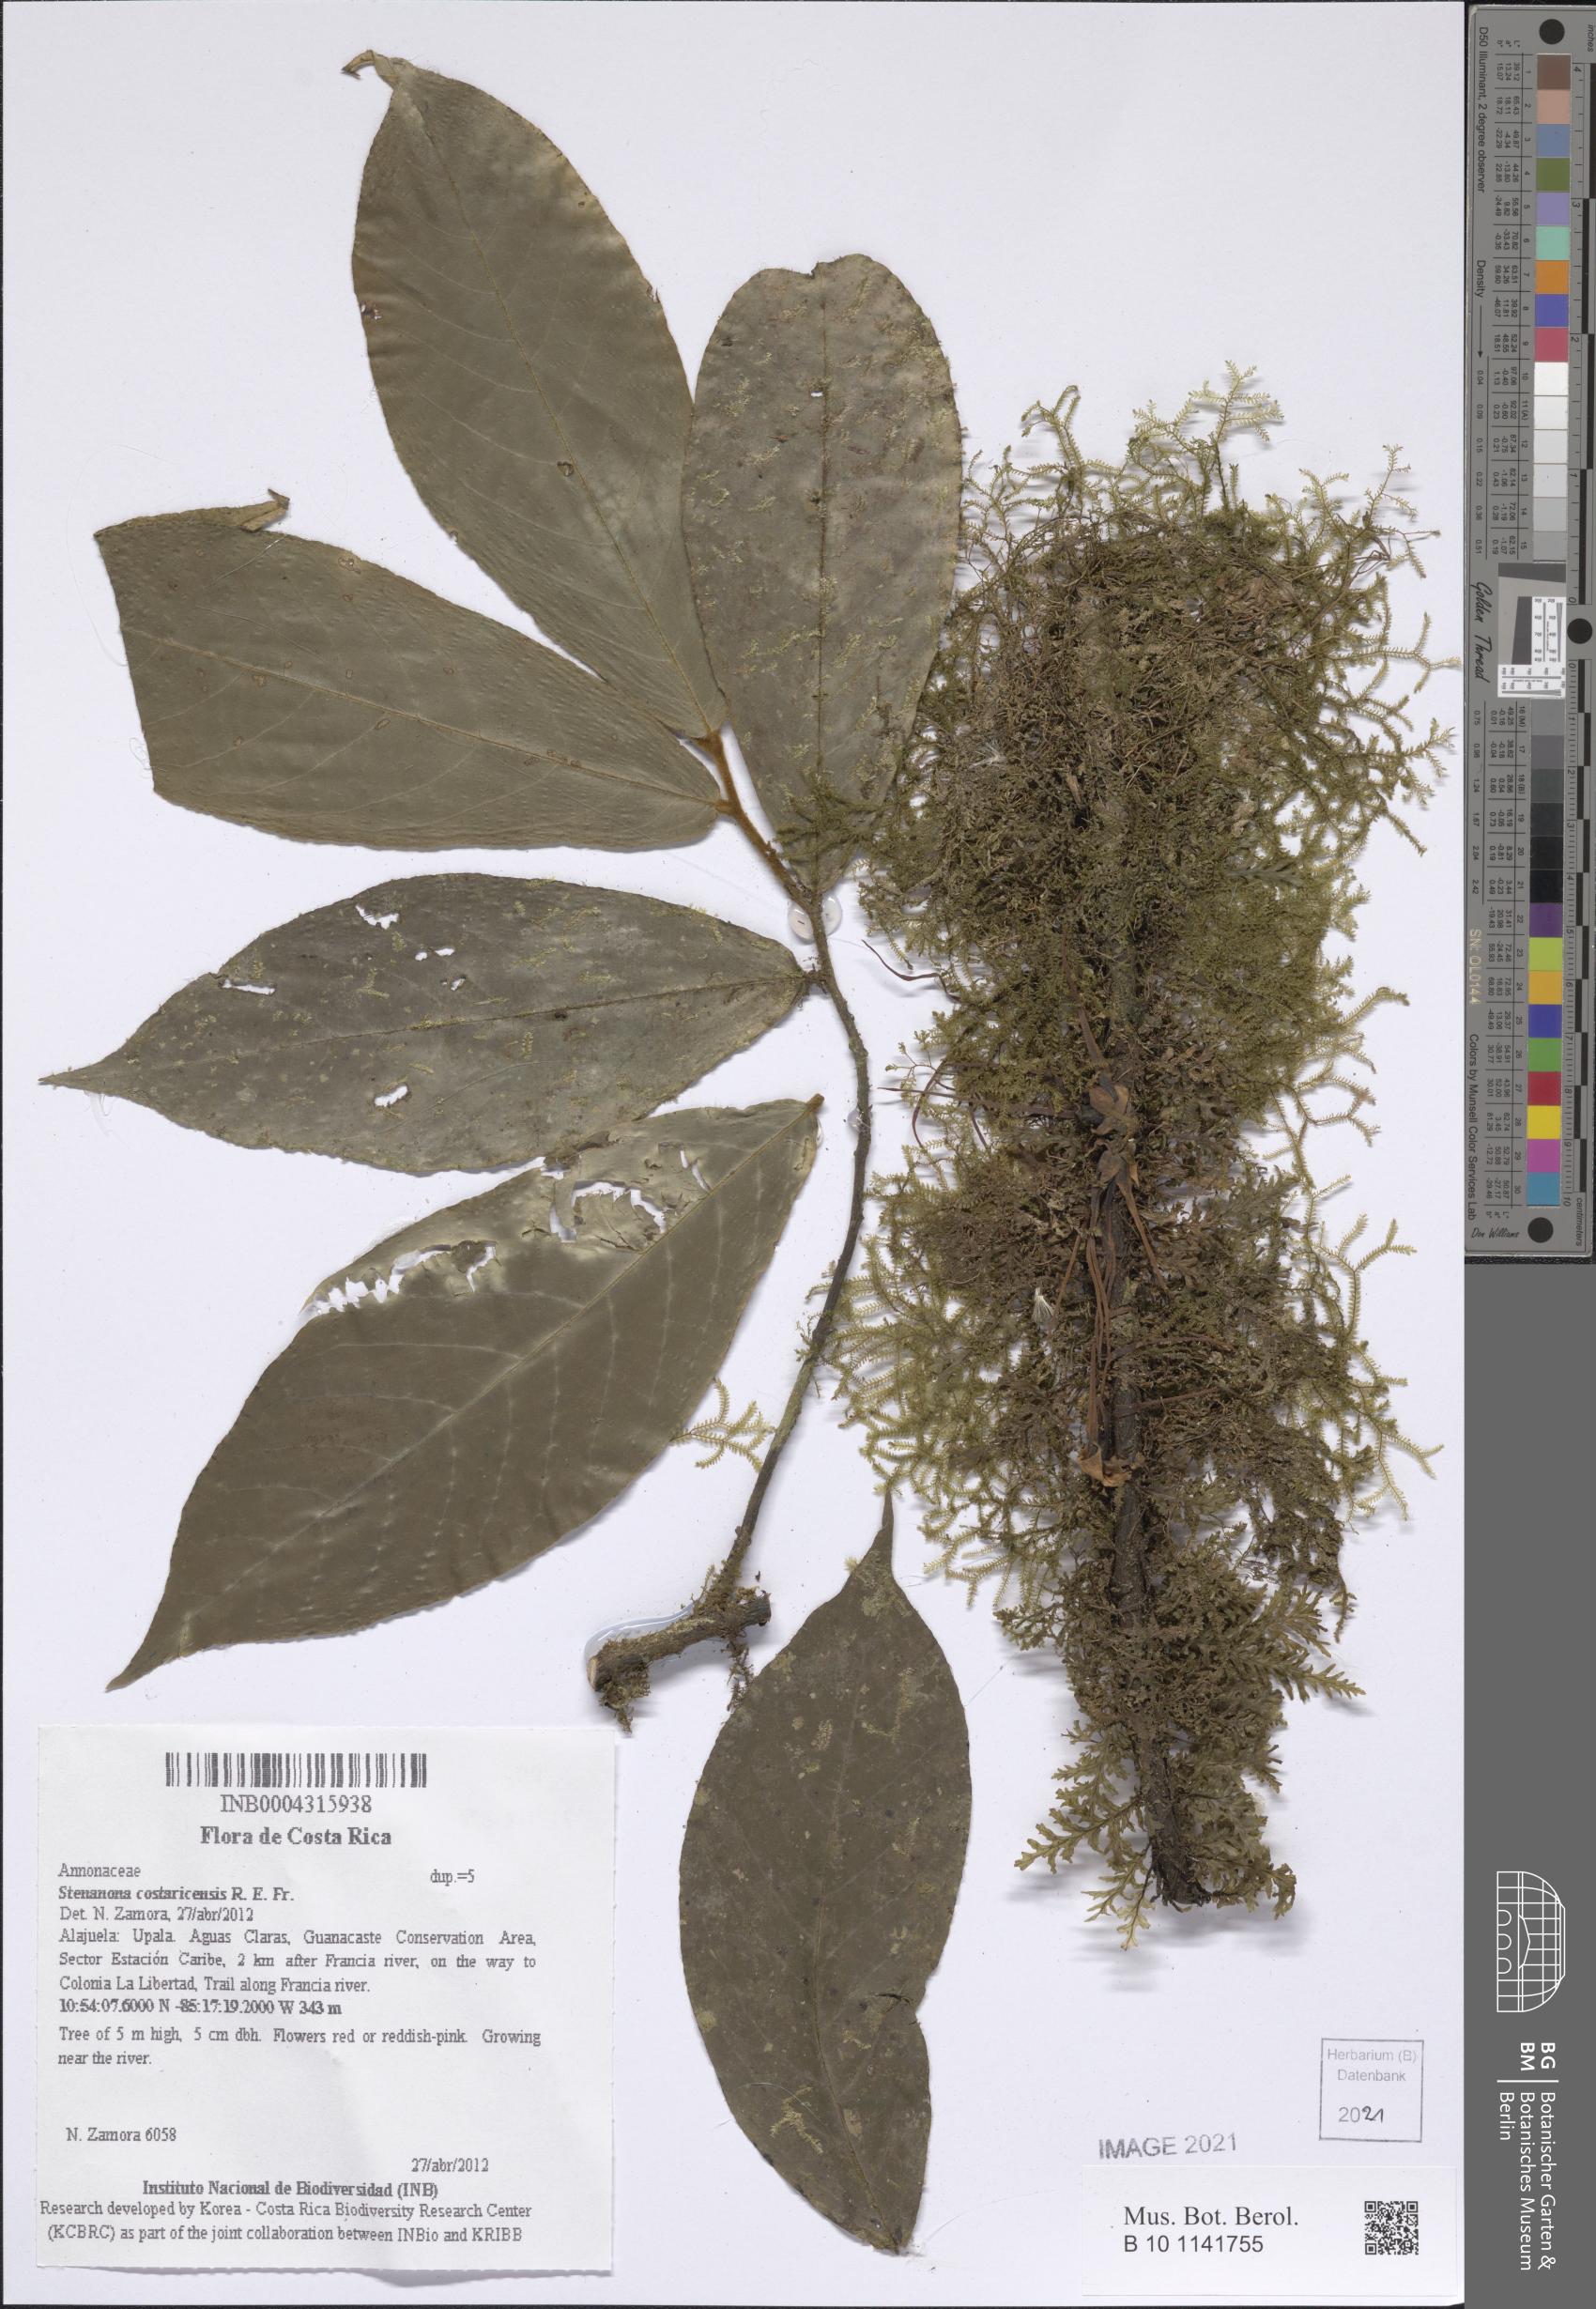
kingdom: Plantae
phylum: Tracheophyta
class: Magnoliopsida
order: Magnoliales
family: Annonaceae
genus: Stenanona
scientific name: Stenanona costaricensis
